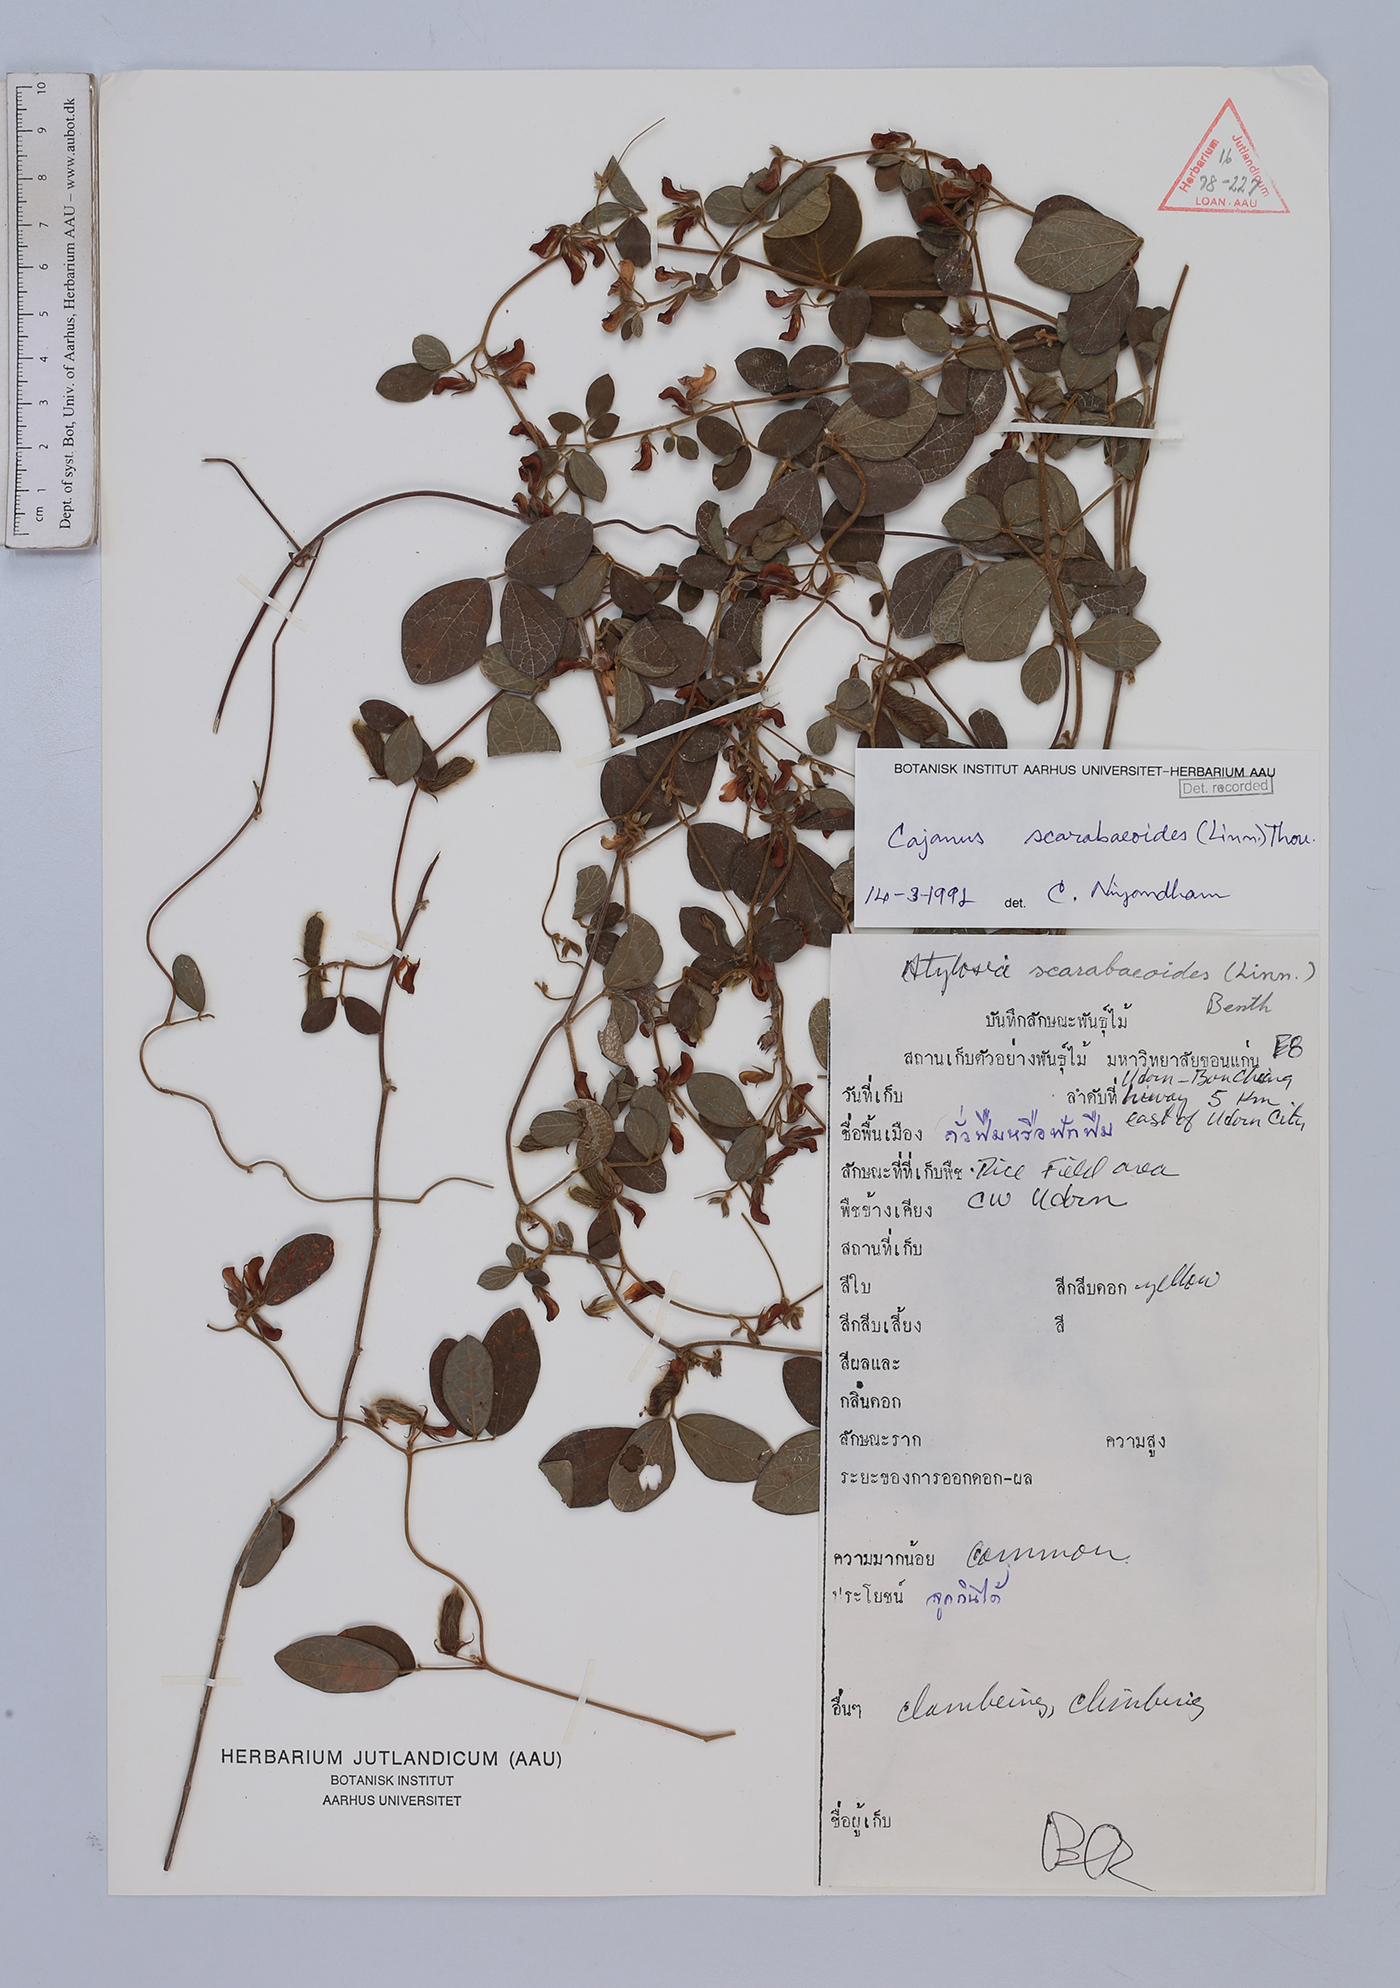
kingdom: Plantae
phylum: Tracheophyta
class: Magnoliopsida
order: Fabales
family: Fabaceae
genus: Cajanus
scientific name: Cajanus scarabaeoides
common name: Showy pigeonpea
